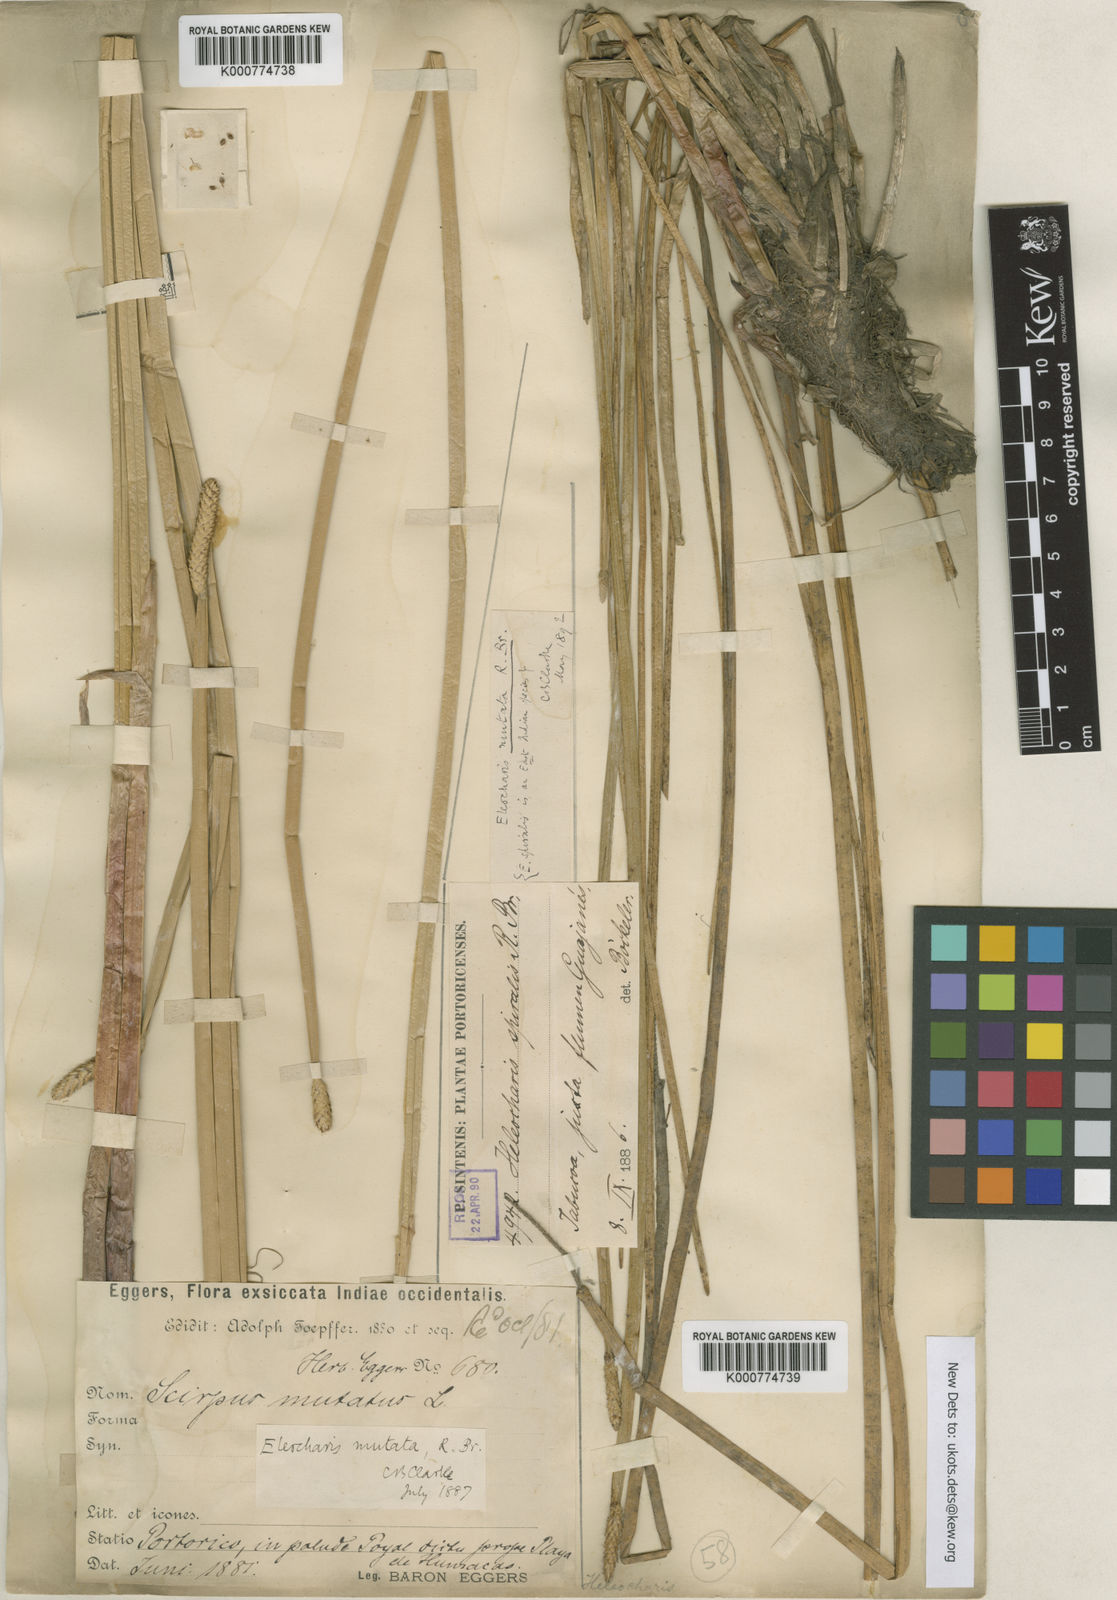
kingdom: Plantae
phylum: Tracheophyta
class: Liliopsida
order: Poales
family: Cyperaceae
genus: Eleocharis
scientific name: Eleocharis mutata
